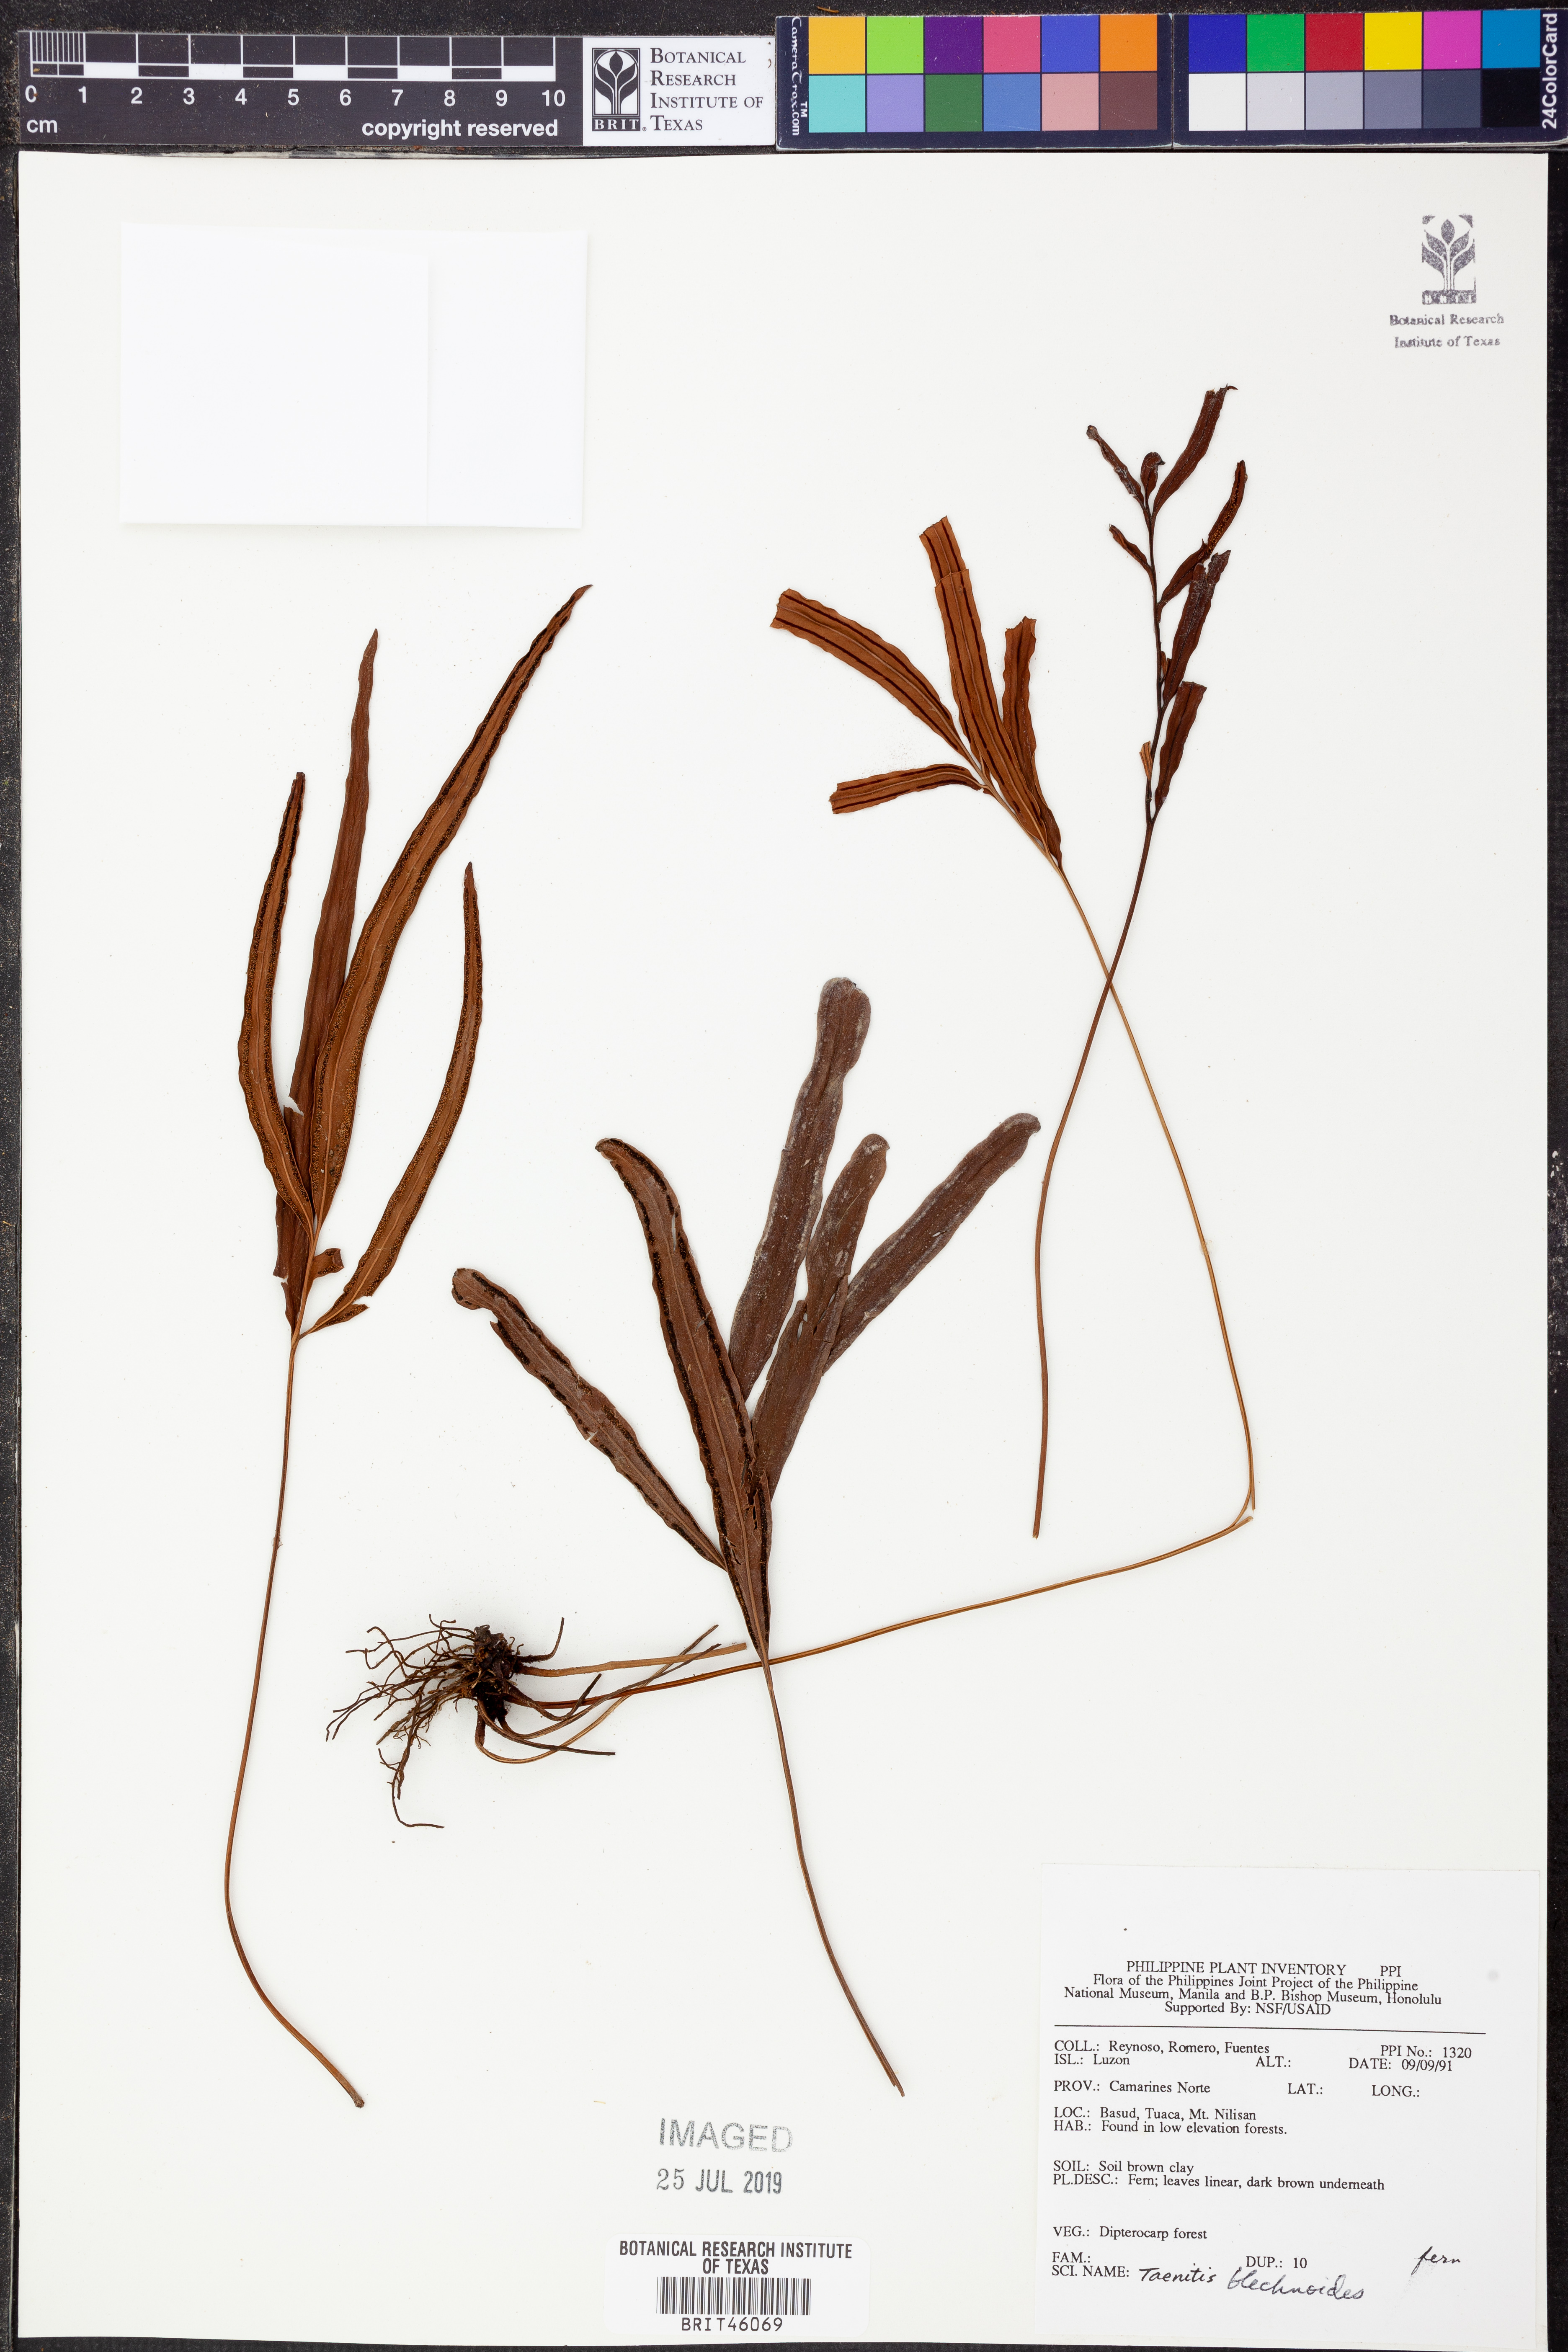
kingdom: Plantae
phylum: Tracheophyta
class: Polypodiopsida
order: Polypodiales
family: Pteridaceae
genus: Taenitis
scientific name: Taenitis blechnoides
